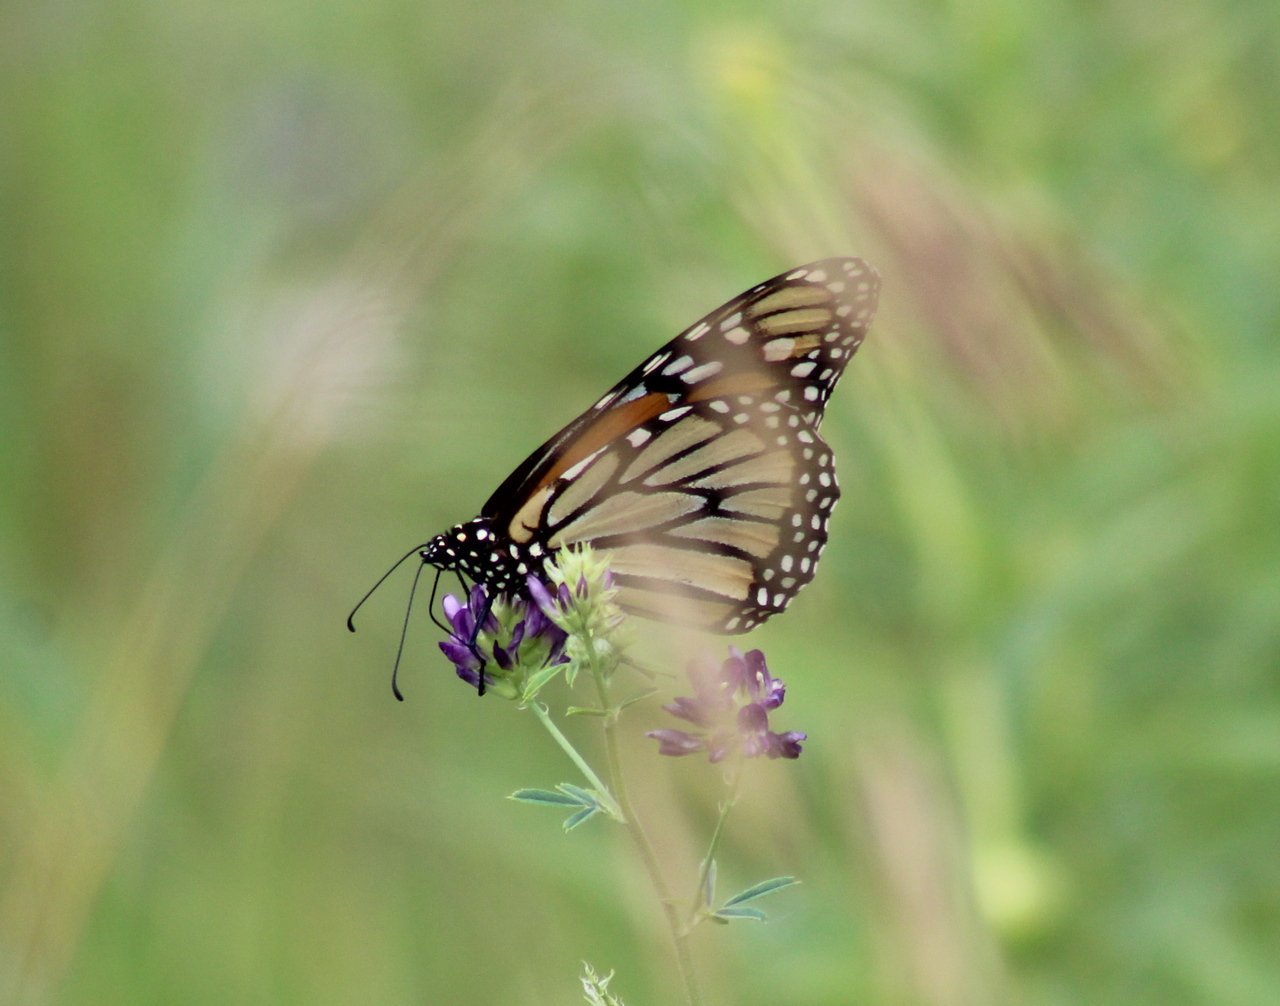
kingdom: Animalia
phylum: Arthropoda
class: Insecta
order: Lepidoptera
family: Nymphalidae
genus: Danaus
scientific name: Danaus plexippus
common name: Monarch
